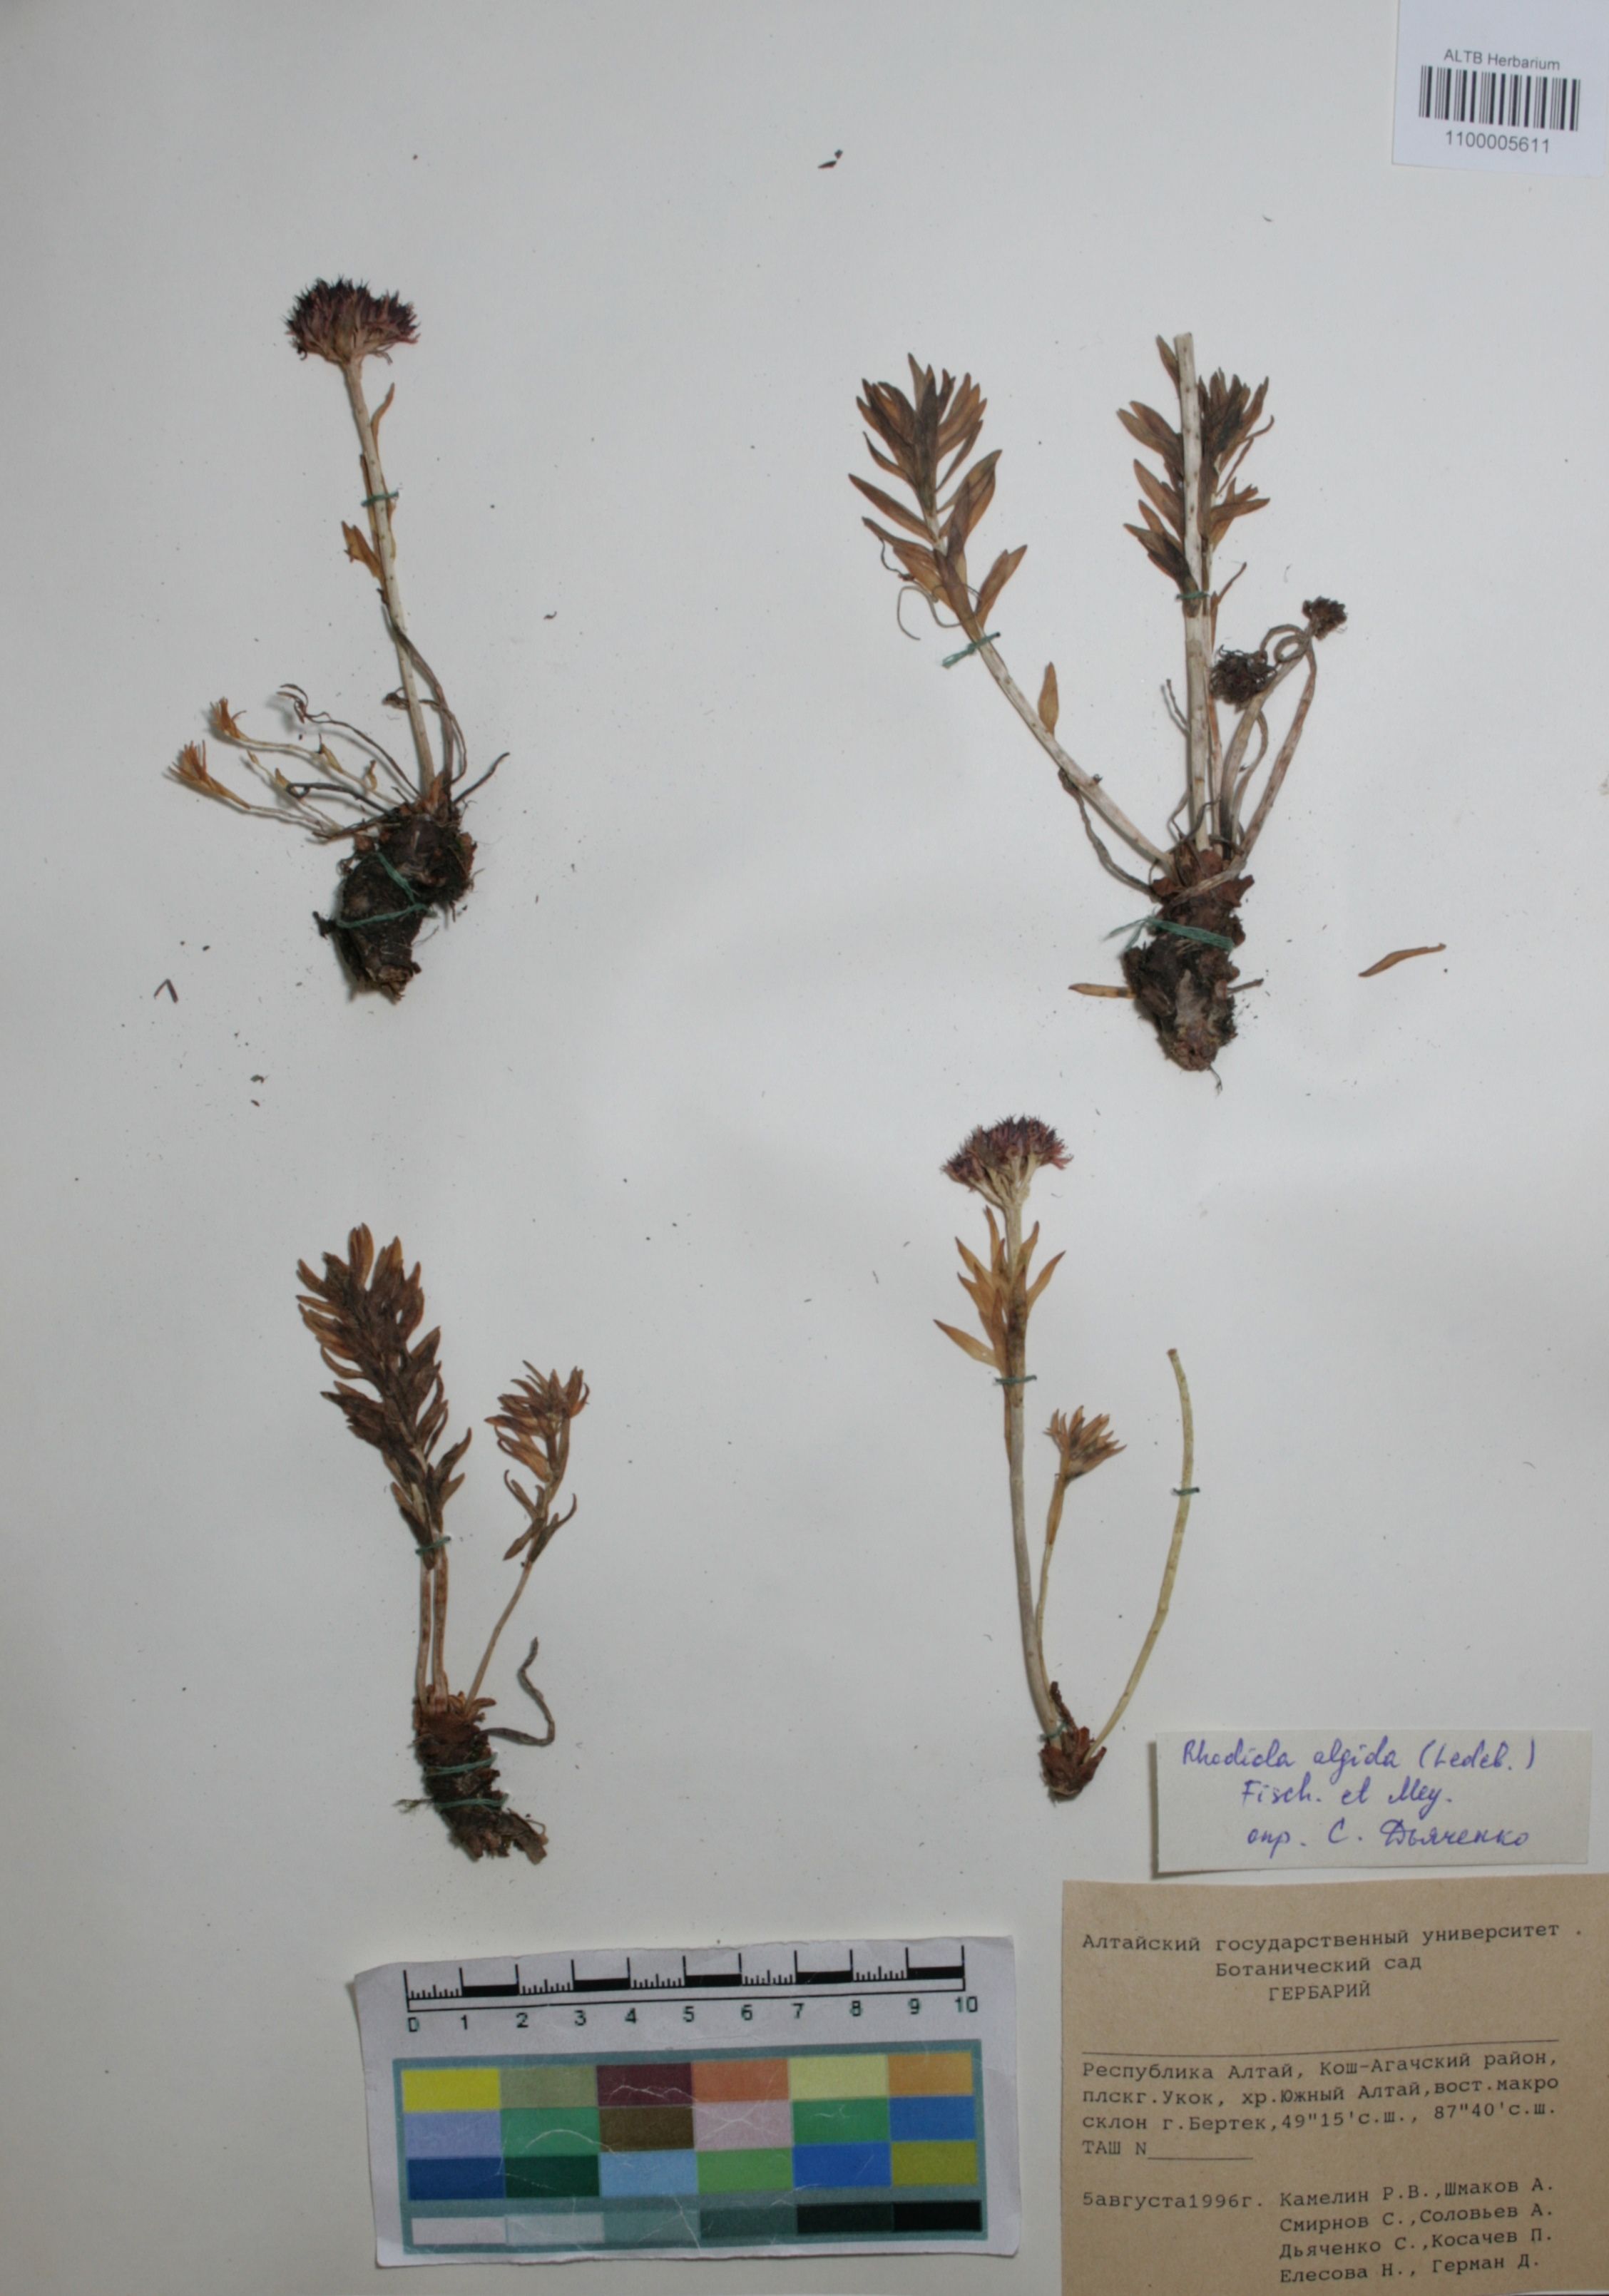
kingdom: Plantae
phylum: Tracheophyta
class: Magnoliopsida
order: Saxifragales
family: Crassulaceae
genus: Rhodiola
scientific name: Rhodiola algida
